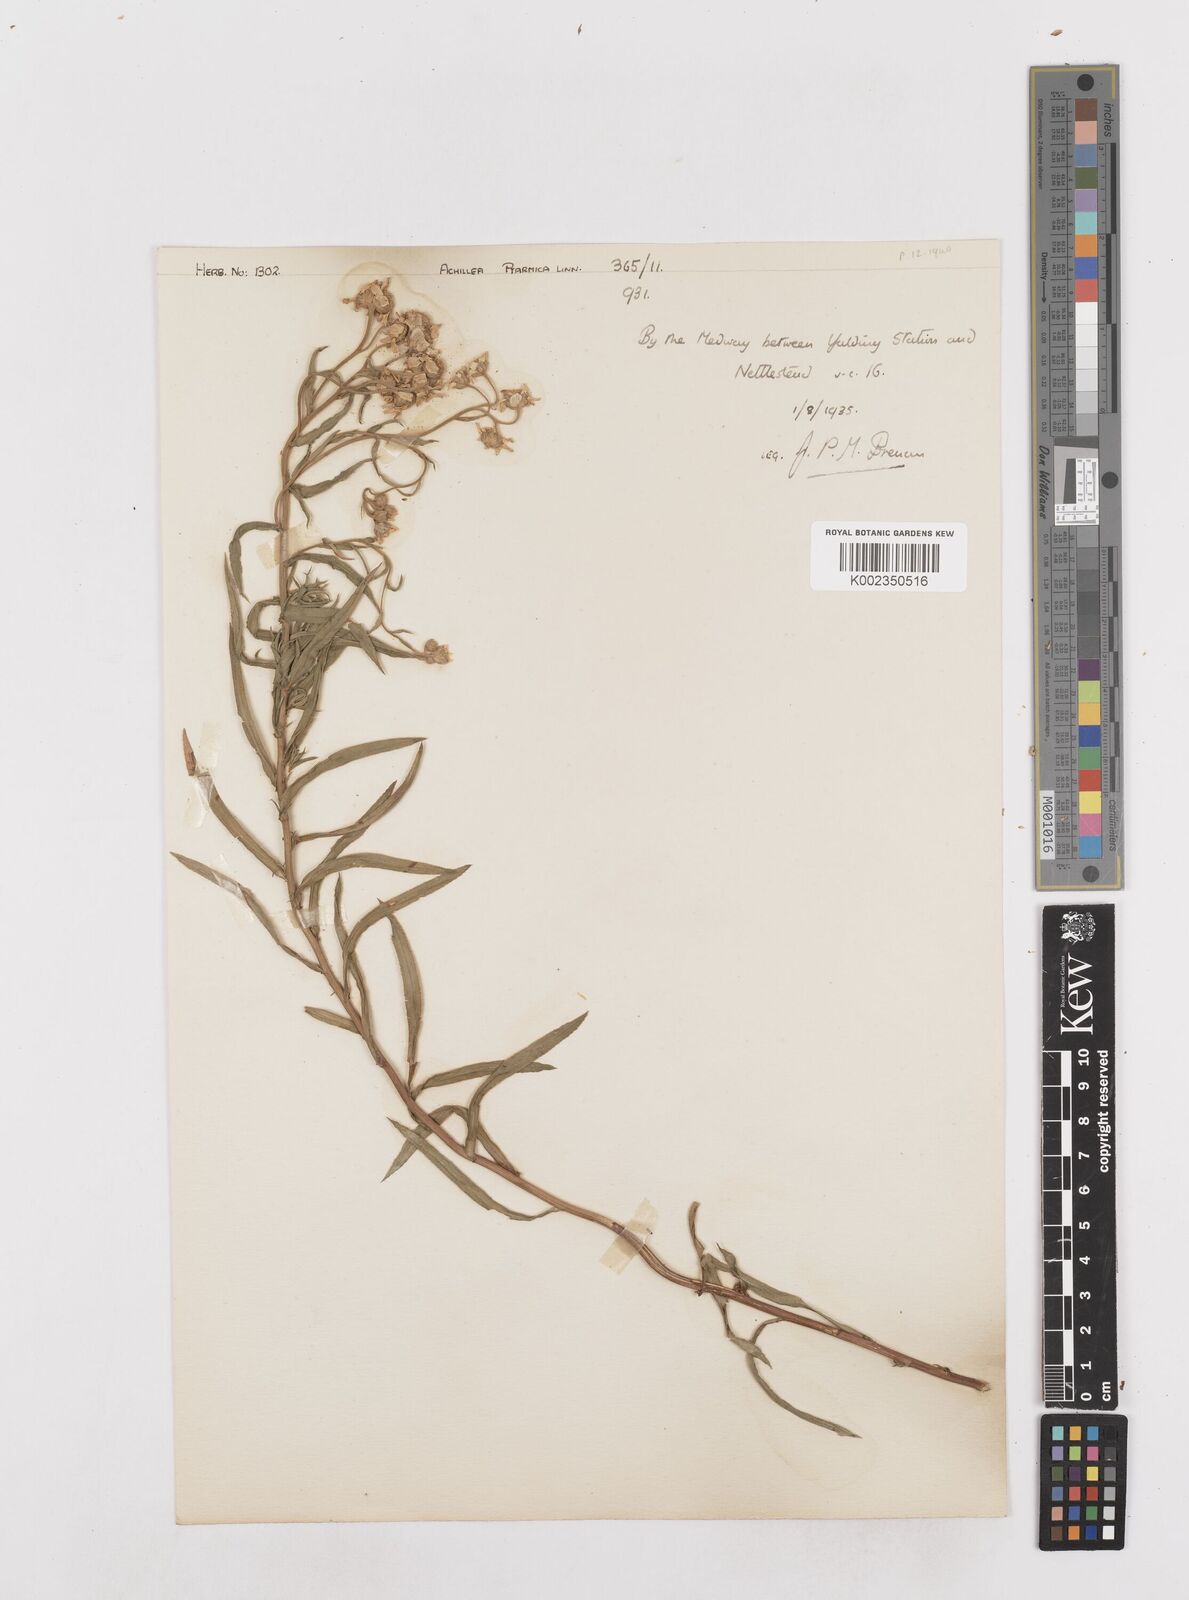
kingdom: Plantae
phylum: Tracheophyta
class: Magnoliopsida
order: Asterales
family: Asteraceae
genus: Achillea
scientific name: Achillea ptarmica
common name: Sneezeweed
